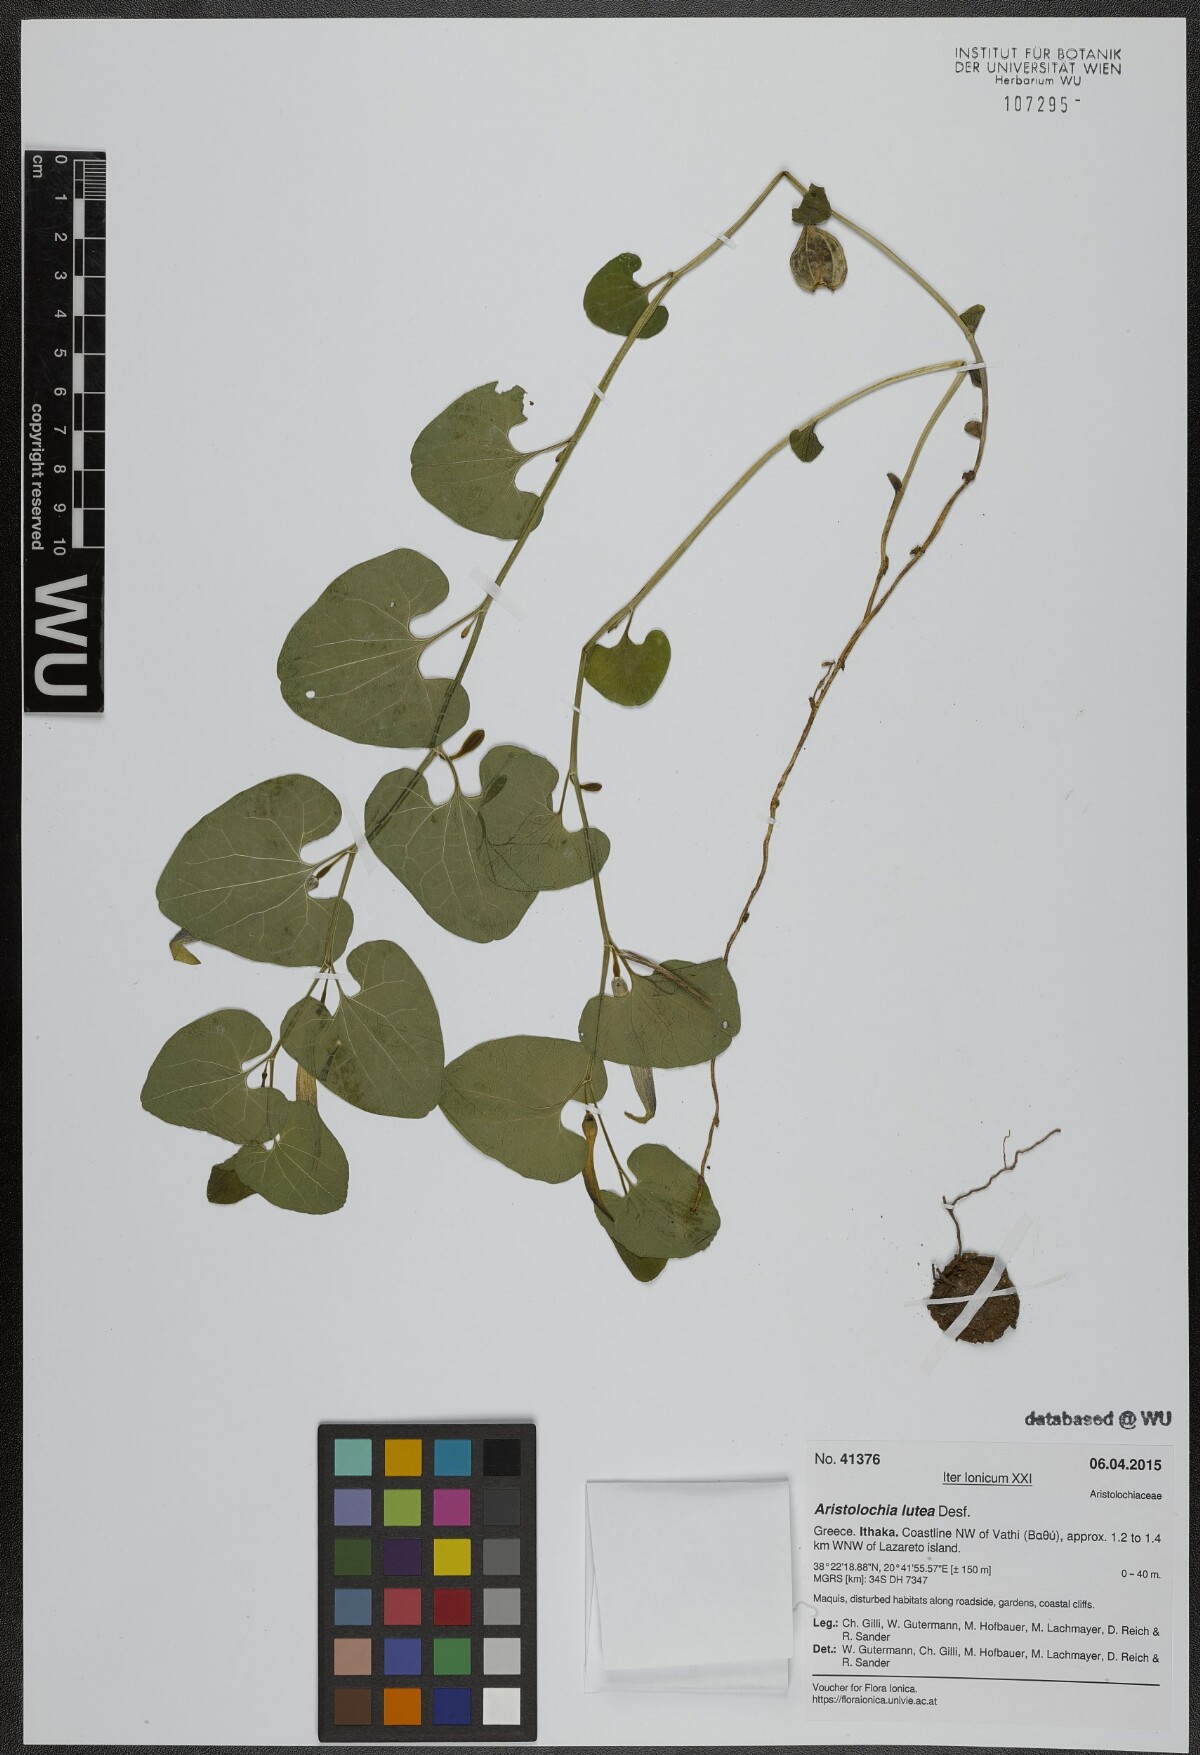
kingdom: Plantae
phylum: Tracheophyta
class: Magnoliopsida
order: Piperales
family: Aristolochiaceae
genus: Aristolochia
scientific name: Aristolochia lutea
